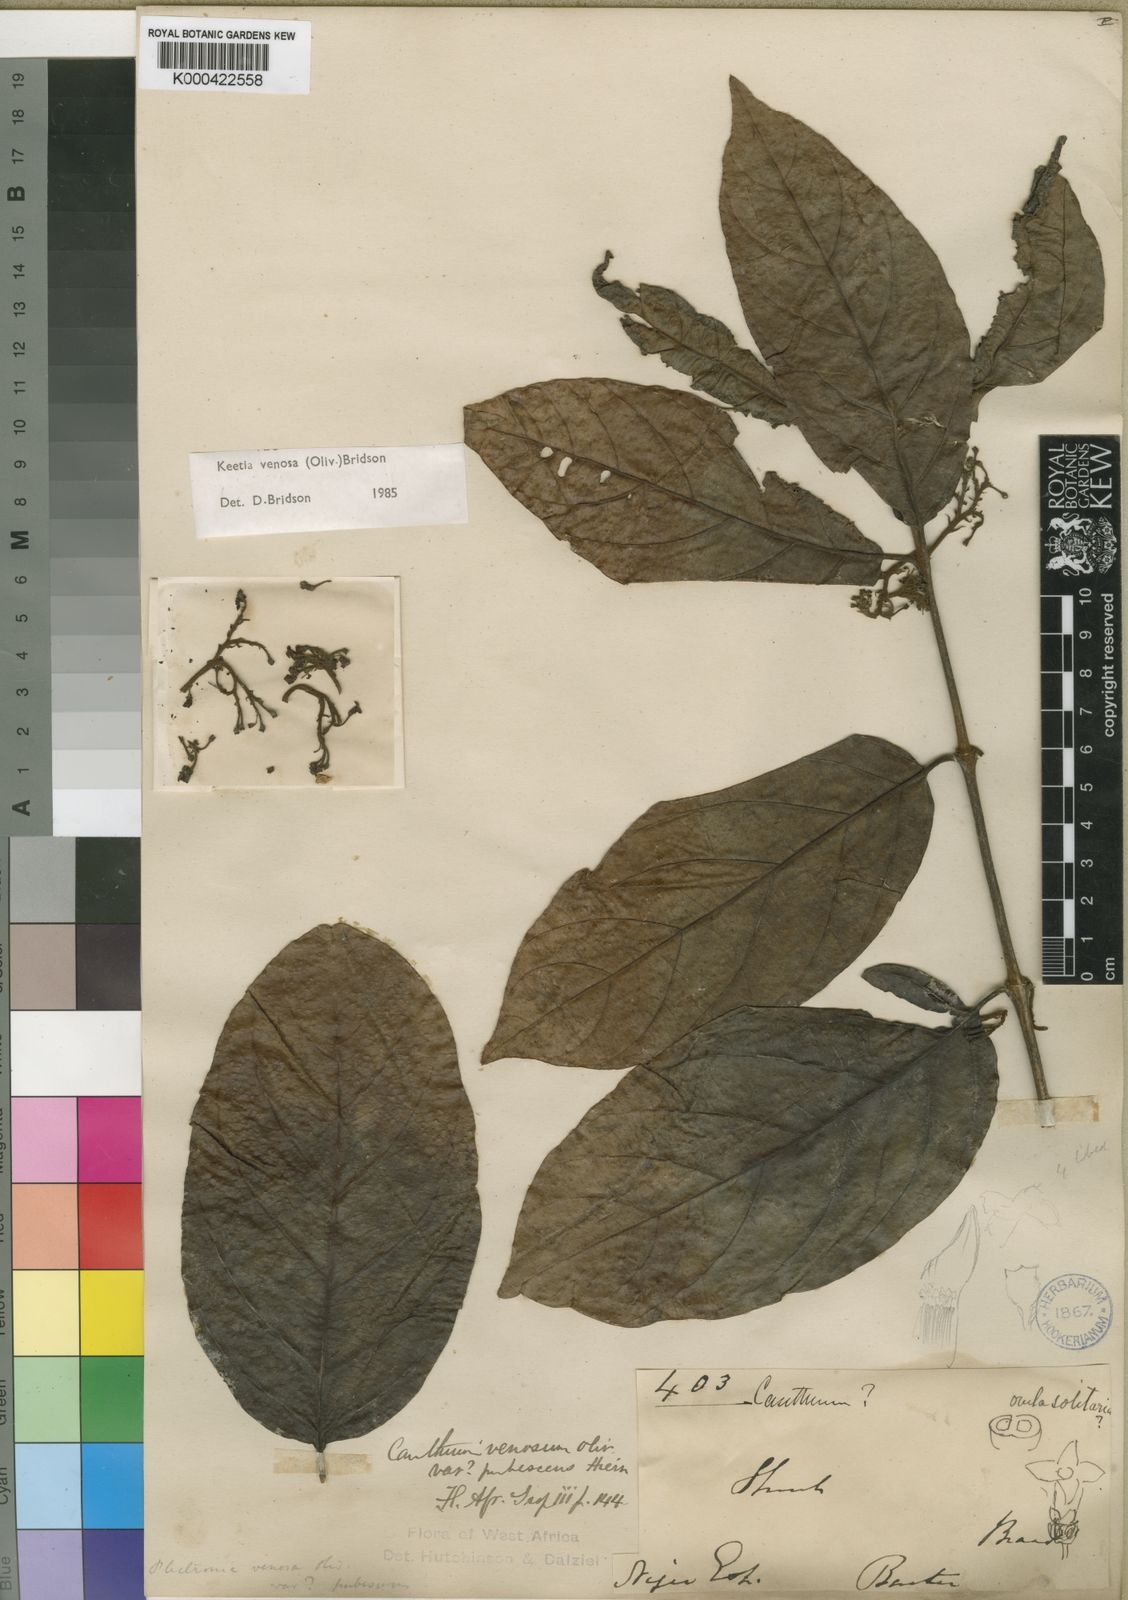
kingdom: Plantae
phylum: Tracheophyta
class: Magnoliopsida
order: Gentianales
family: Rubiaceae
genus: Keetia
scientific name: Keetia venosa
